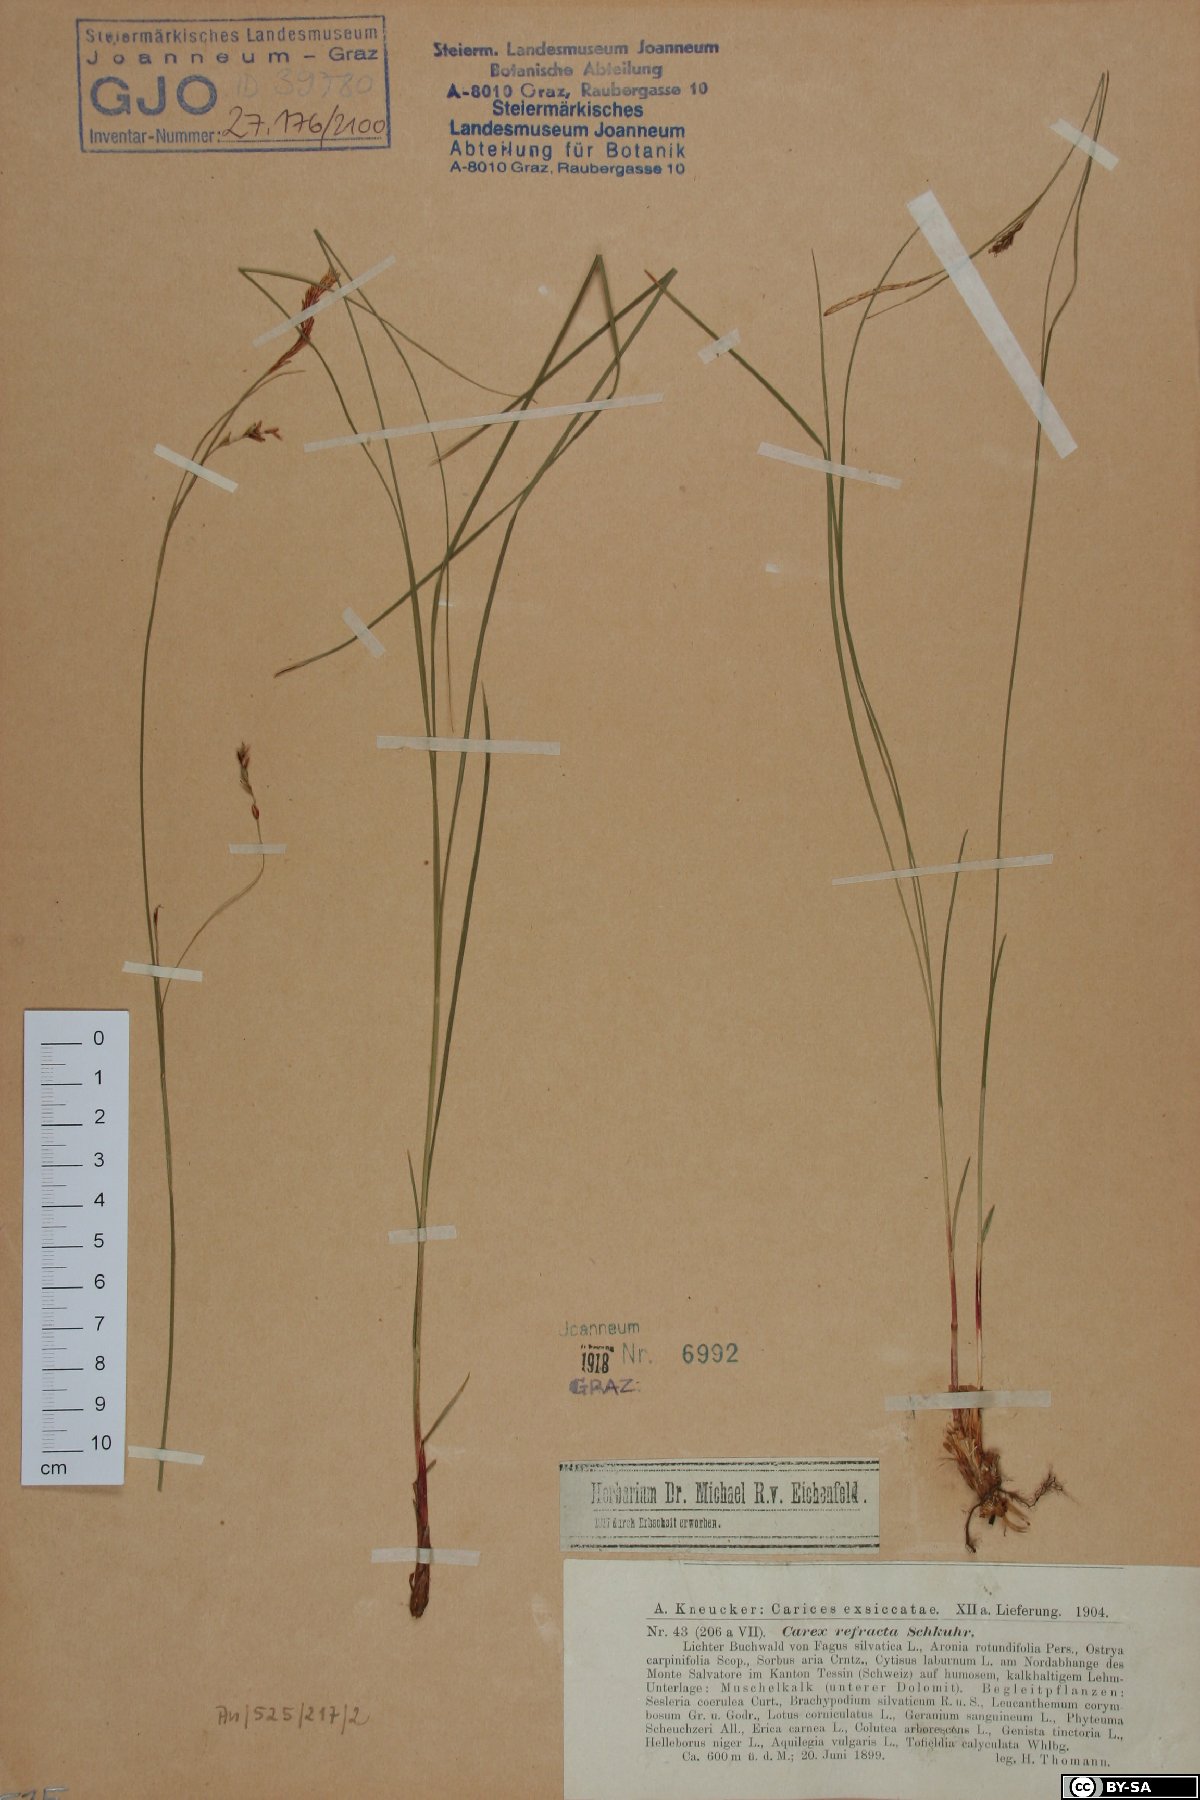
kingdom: Plantae
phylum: Bryophyta
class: Bryopsida
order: Orthotrichales
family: Orthotrichaceae
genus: Ulota
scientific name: Ulota coarctata
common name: Club pincushion moss
